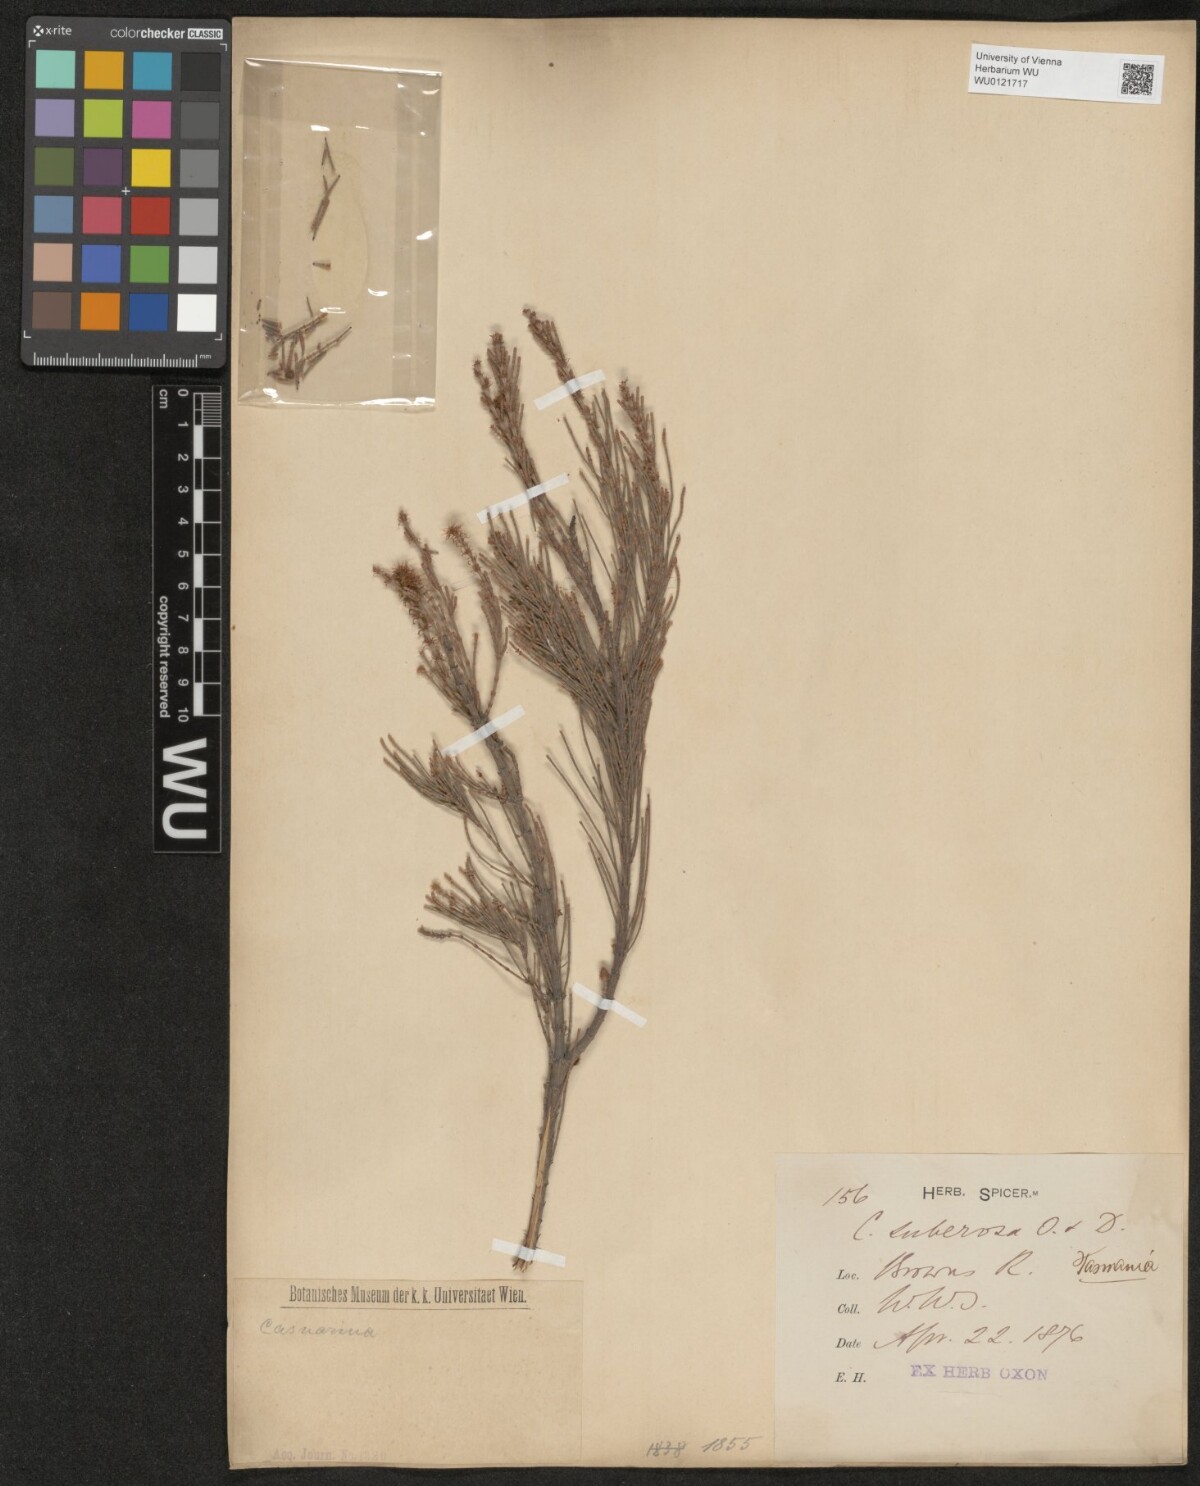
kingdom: Plantae
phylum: Tracheophyta
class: Magnoliopsida
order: Fagales
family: Casuarinaceae
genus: Allocasuarina
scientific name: Allocasuarina littoralis
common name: Black she-oak
